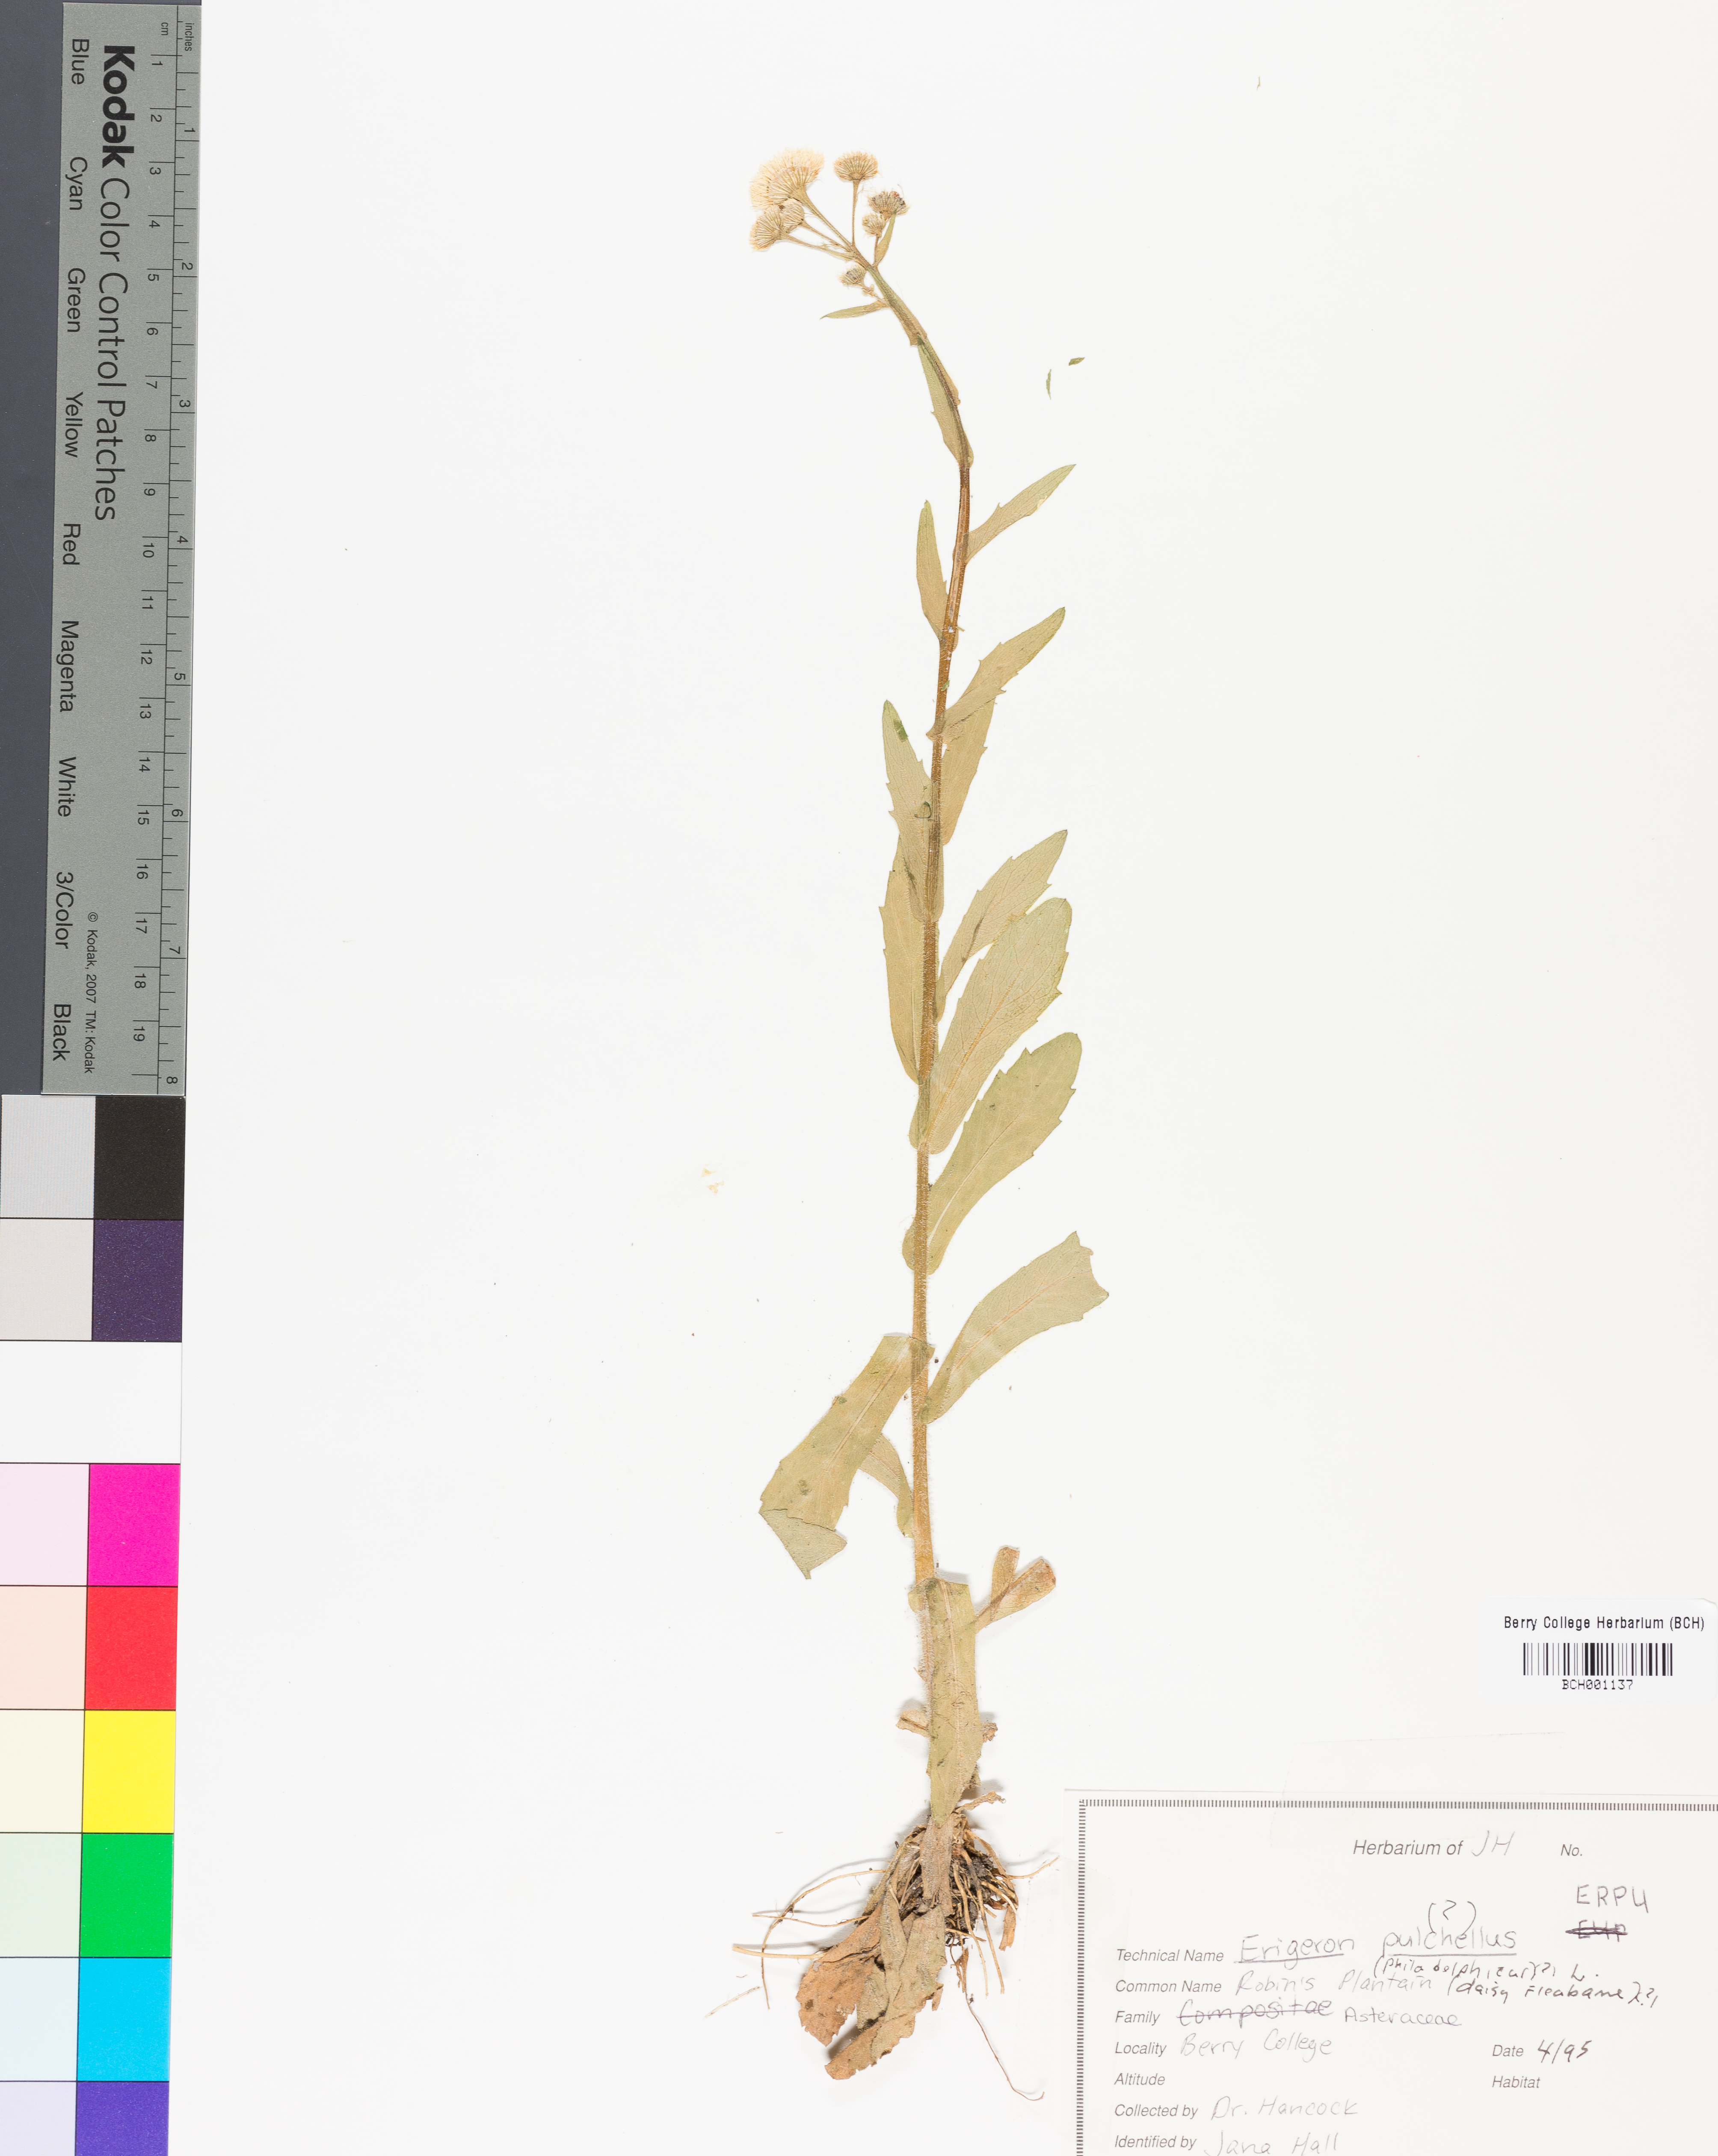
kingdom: Plantae
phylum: Tracheophyta
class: Magnoliopsida
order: Asterales
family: Asteraceae
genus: Erigeron
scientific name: Erigeron pulchellus
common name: Hairy fleabane
